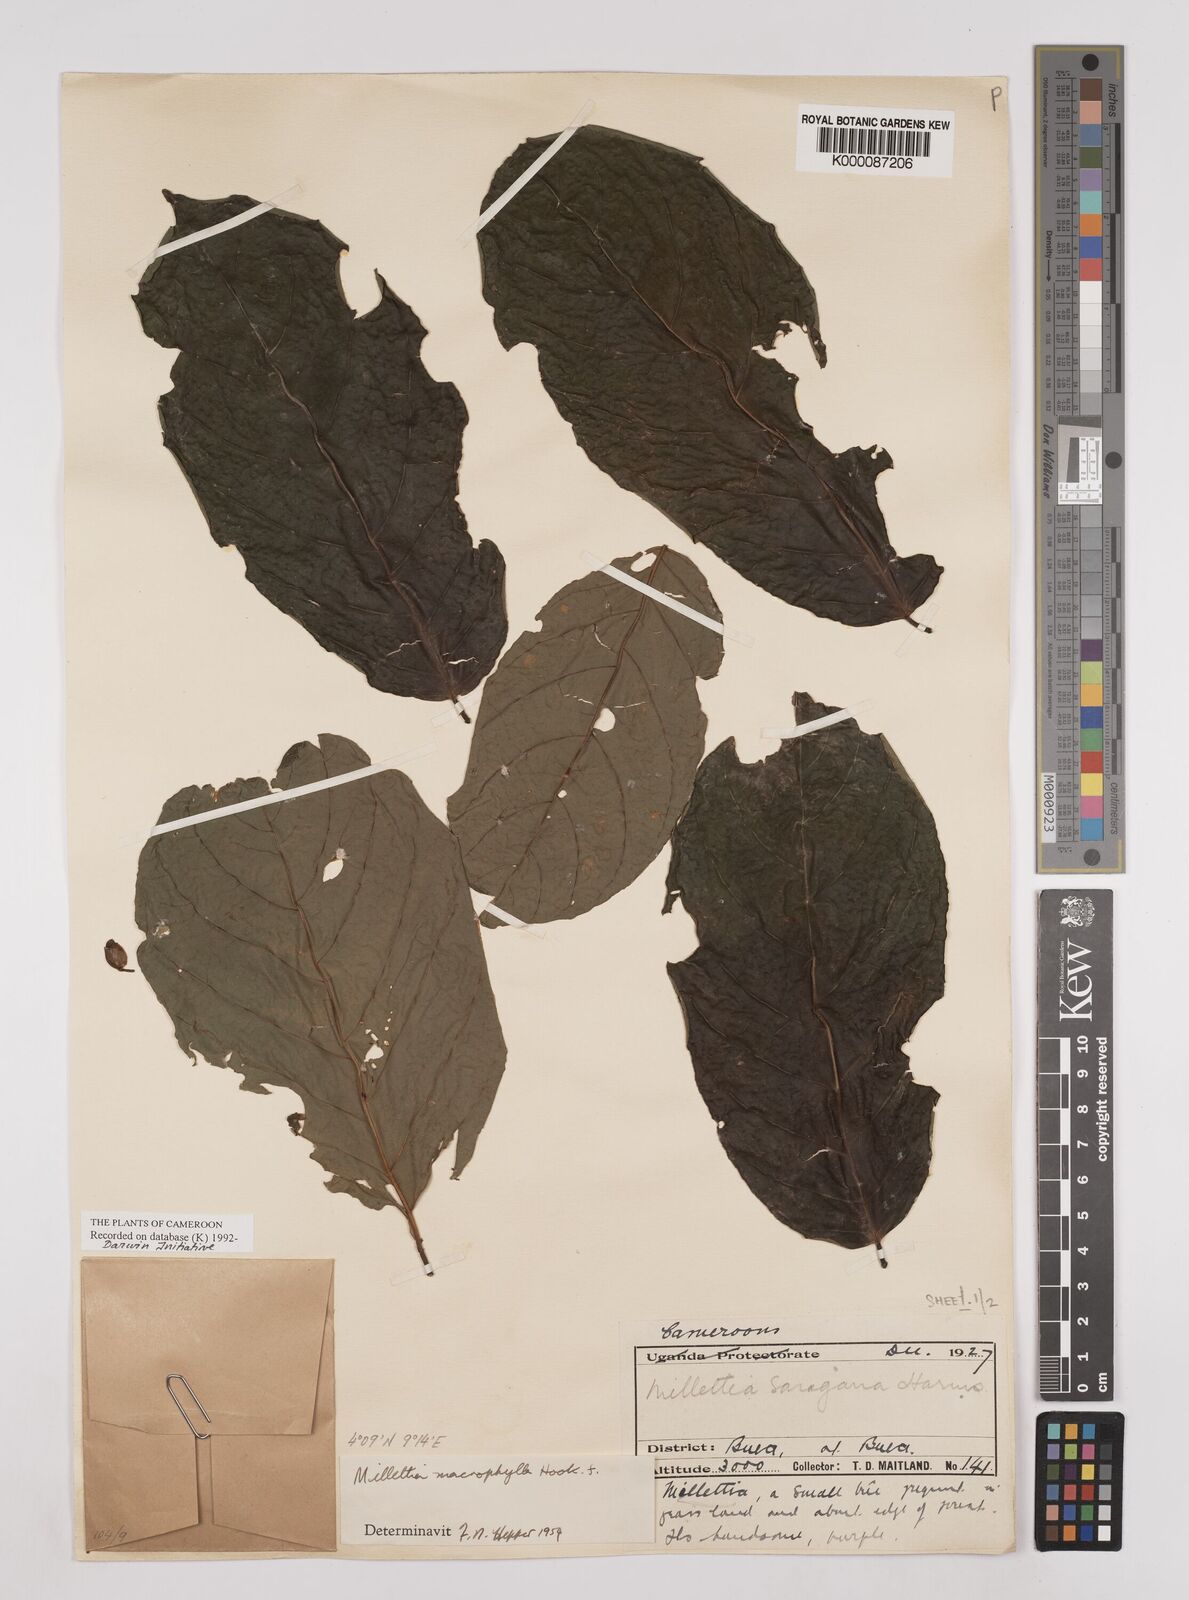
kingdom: Plantae
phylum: Tracheophyta
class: Magnoliopsida
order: Fabales
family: Fabaceae
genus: Millettia
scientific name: Millettia macrophylla
